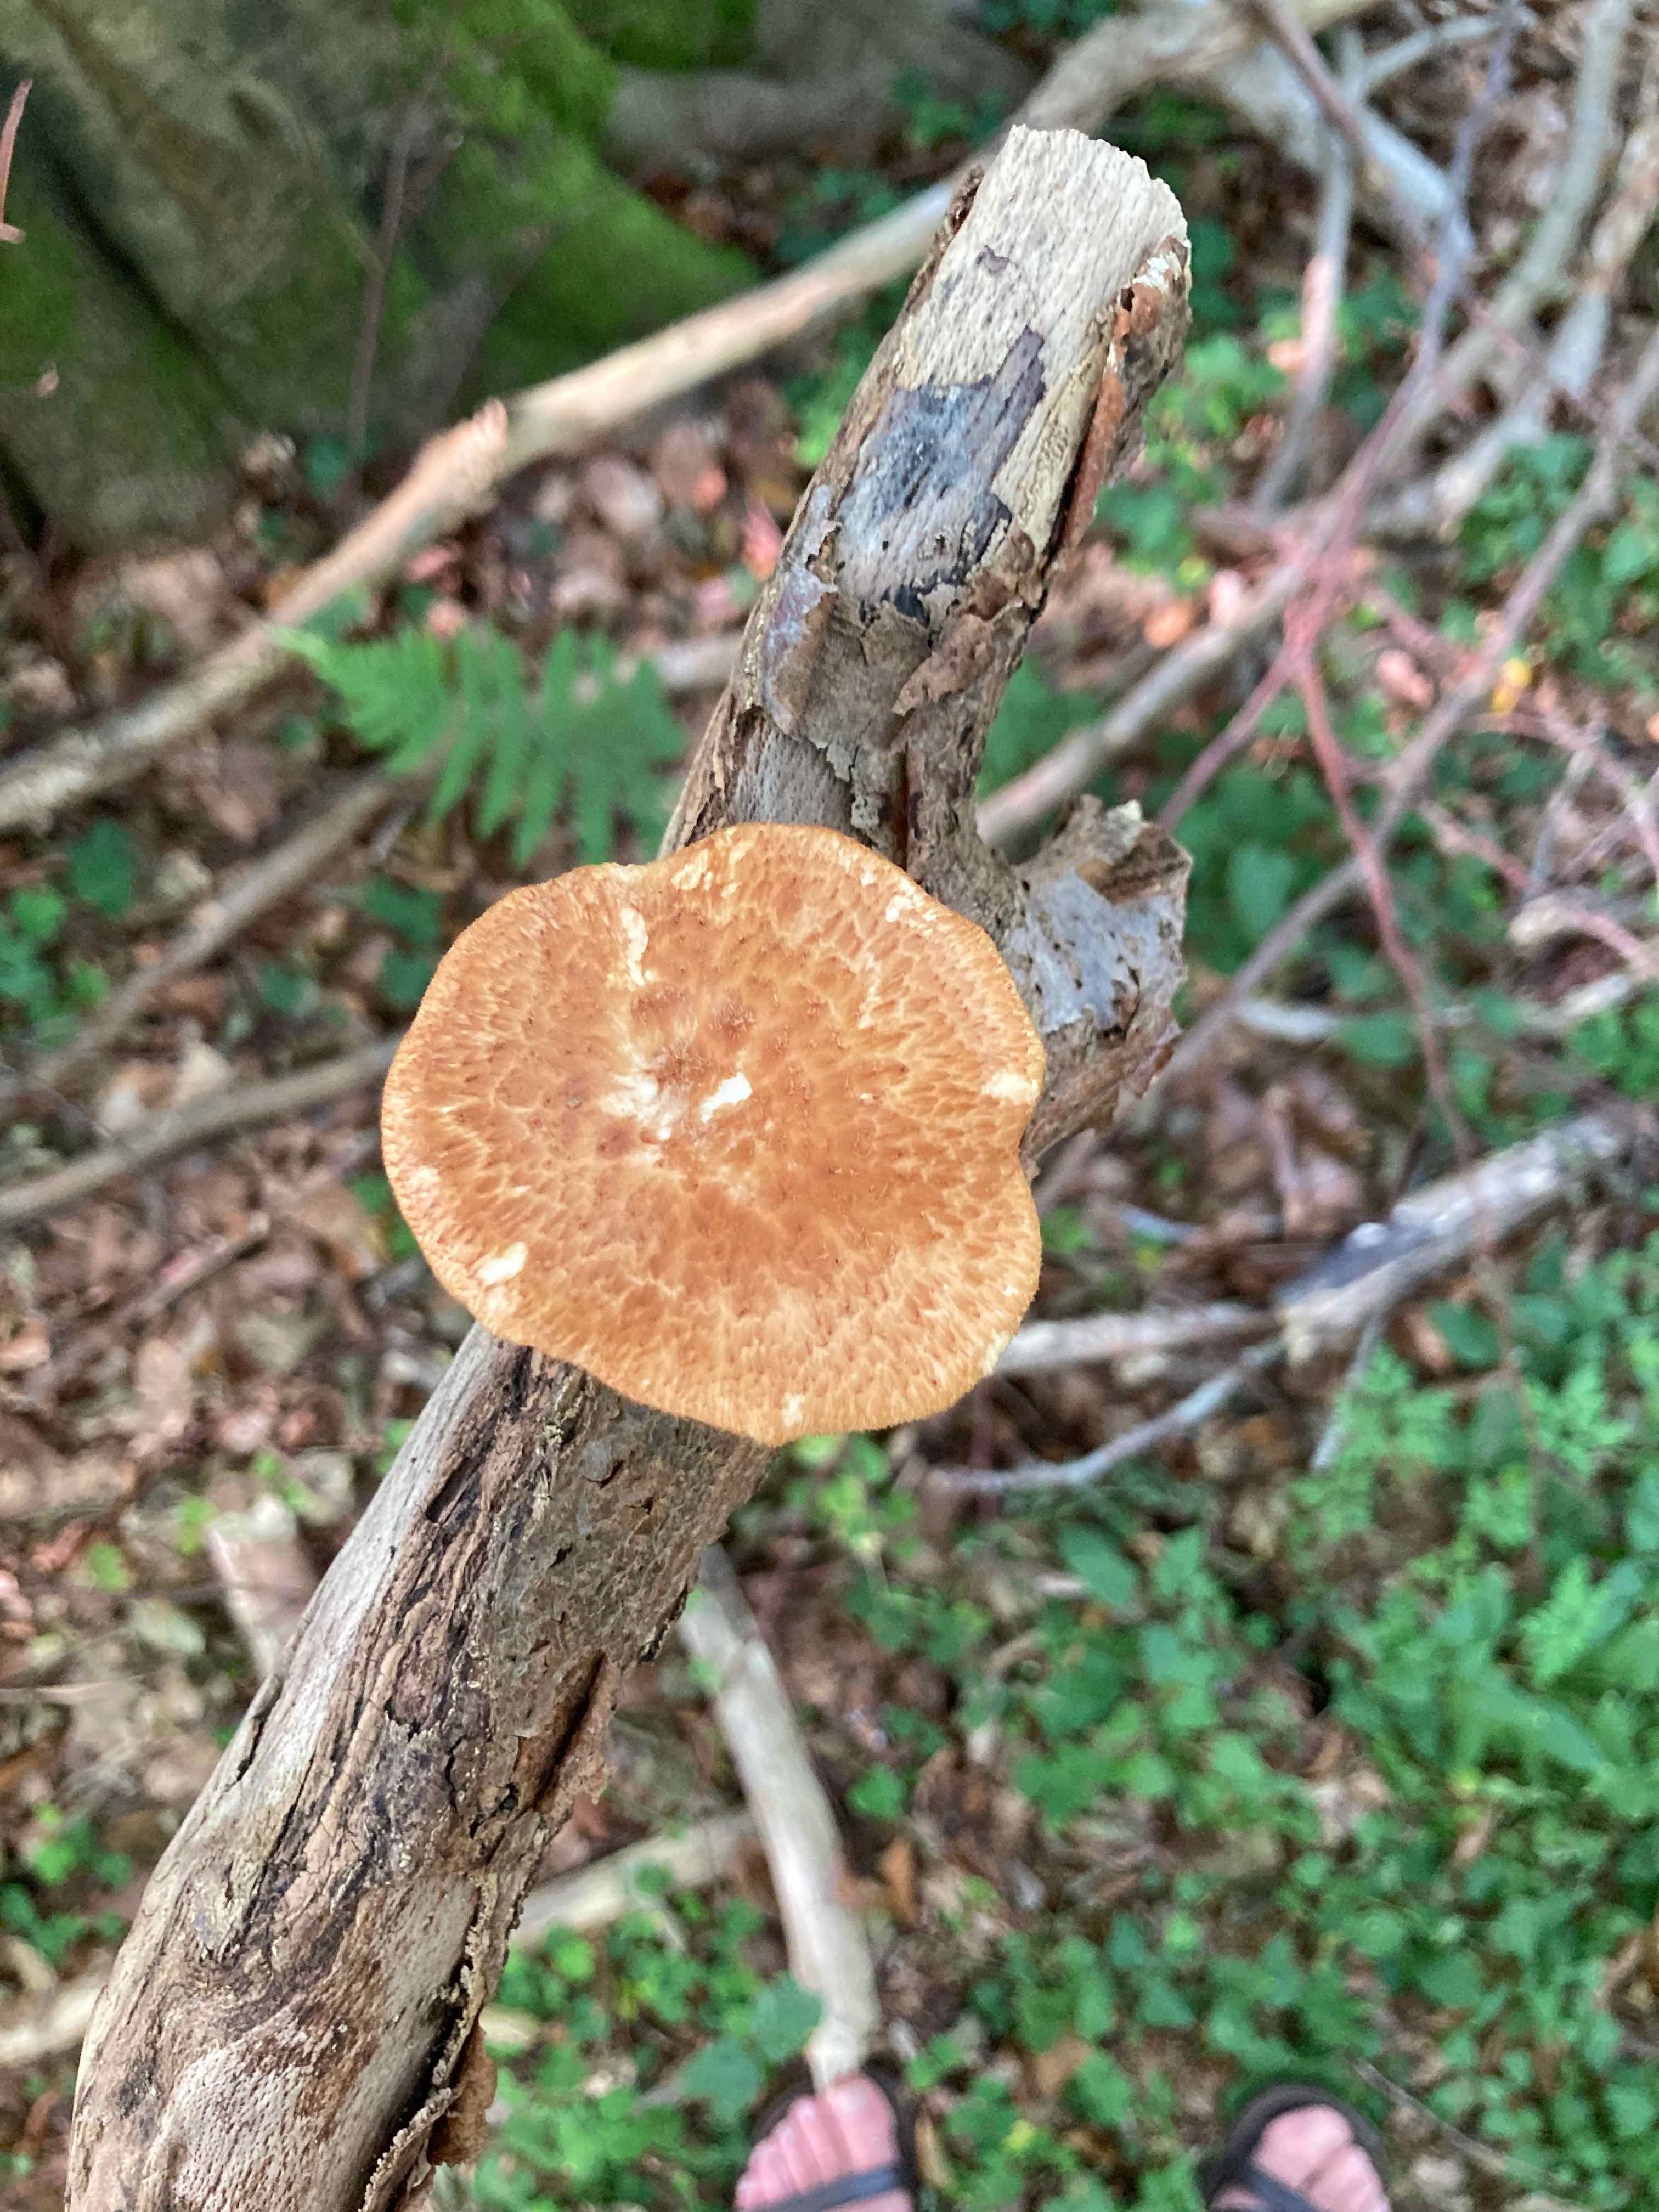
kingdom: Fungi
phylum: Basidiomycota
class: Agaricomycetes
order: Polyporales
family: Polyporaceae
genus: Polyporus
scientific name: Polyporus tuberaster
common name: knoldet stilkporesvamp
